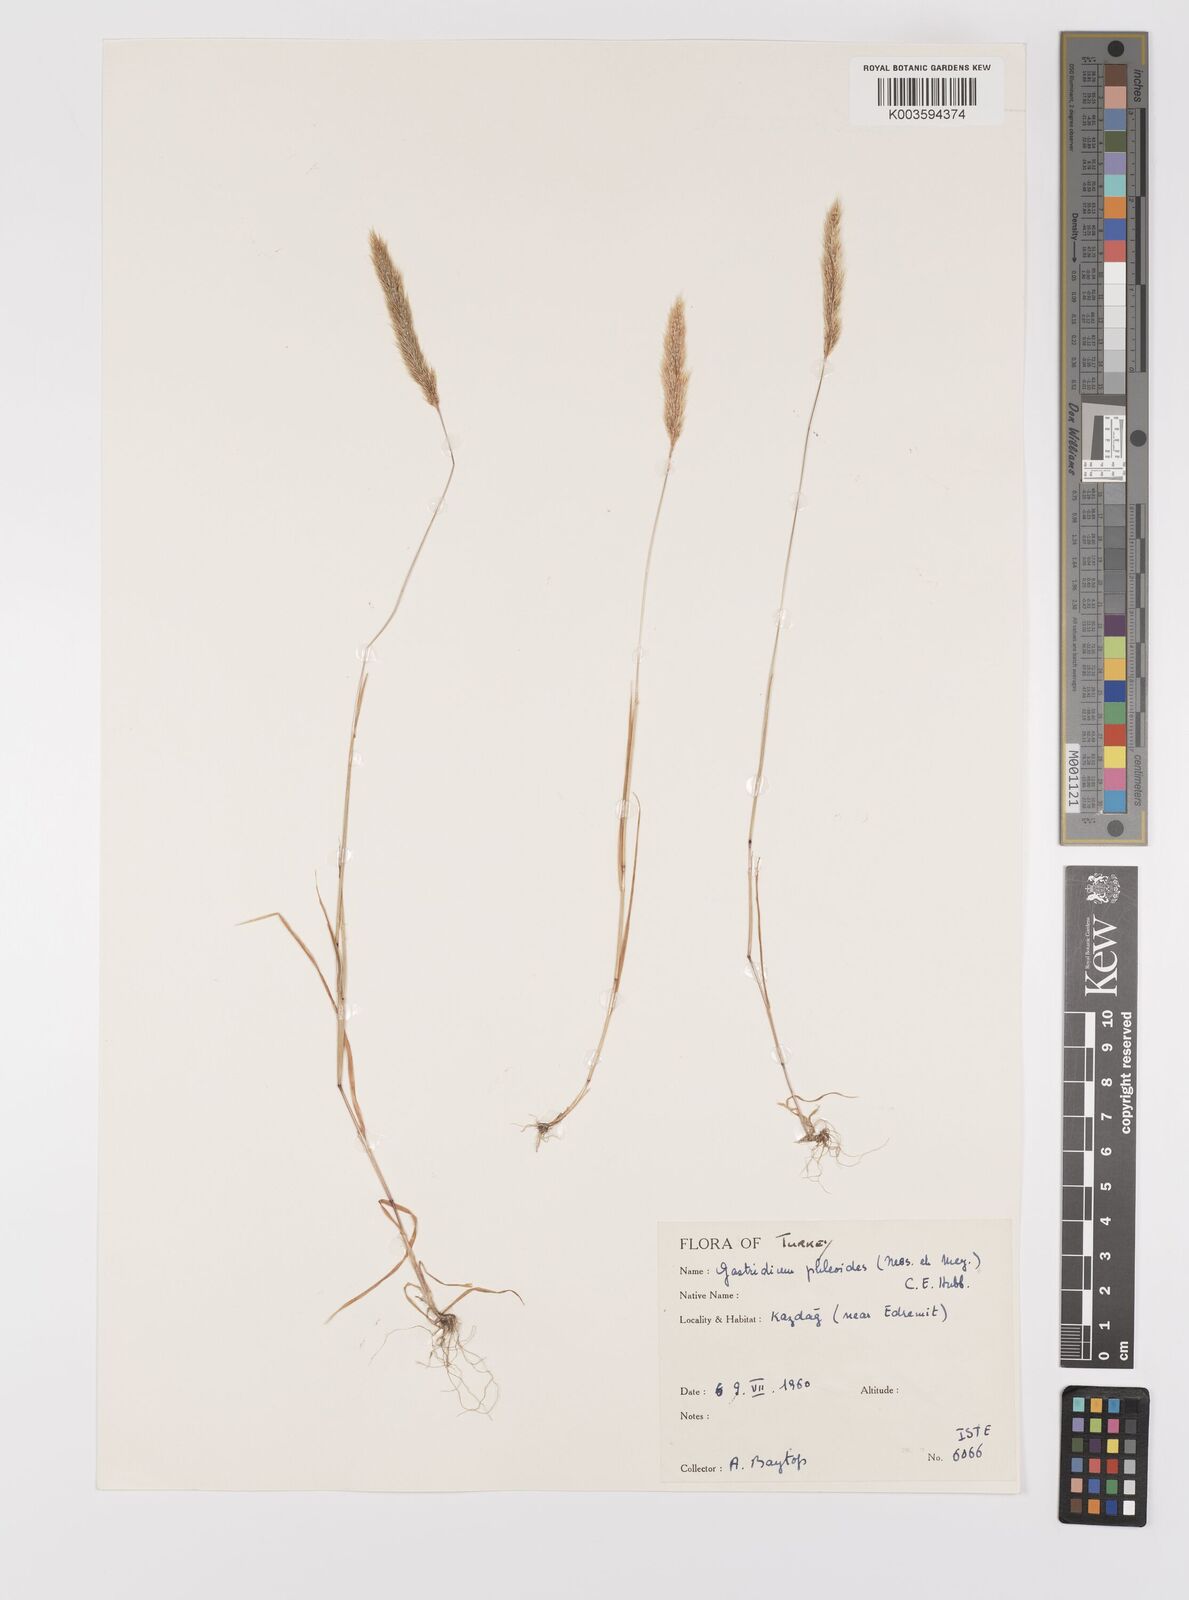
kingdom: Plantae
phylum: Tracheophyta
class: Liliopsida
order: Poales
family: Poaceae
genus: Gastridium
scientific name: Gastridium phleoides
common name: Nit grass
